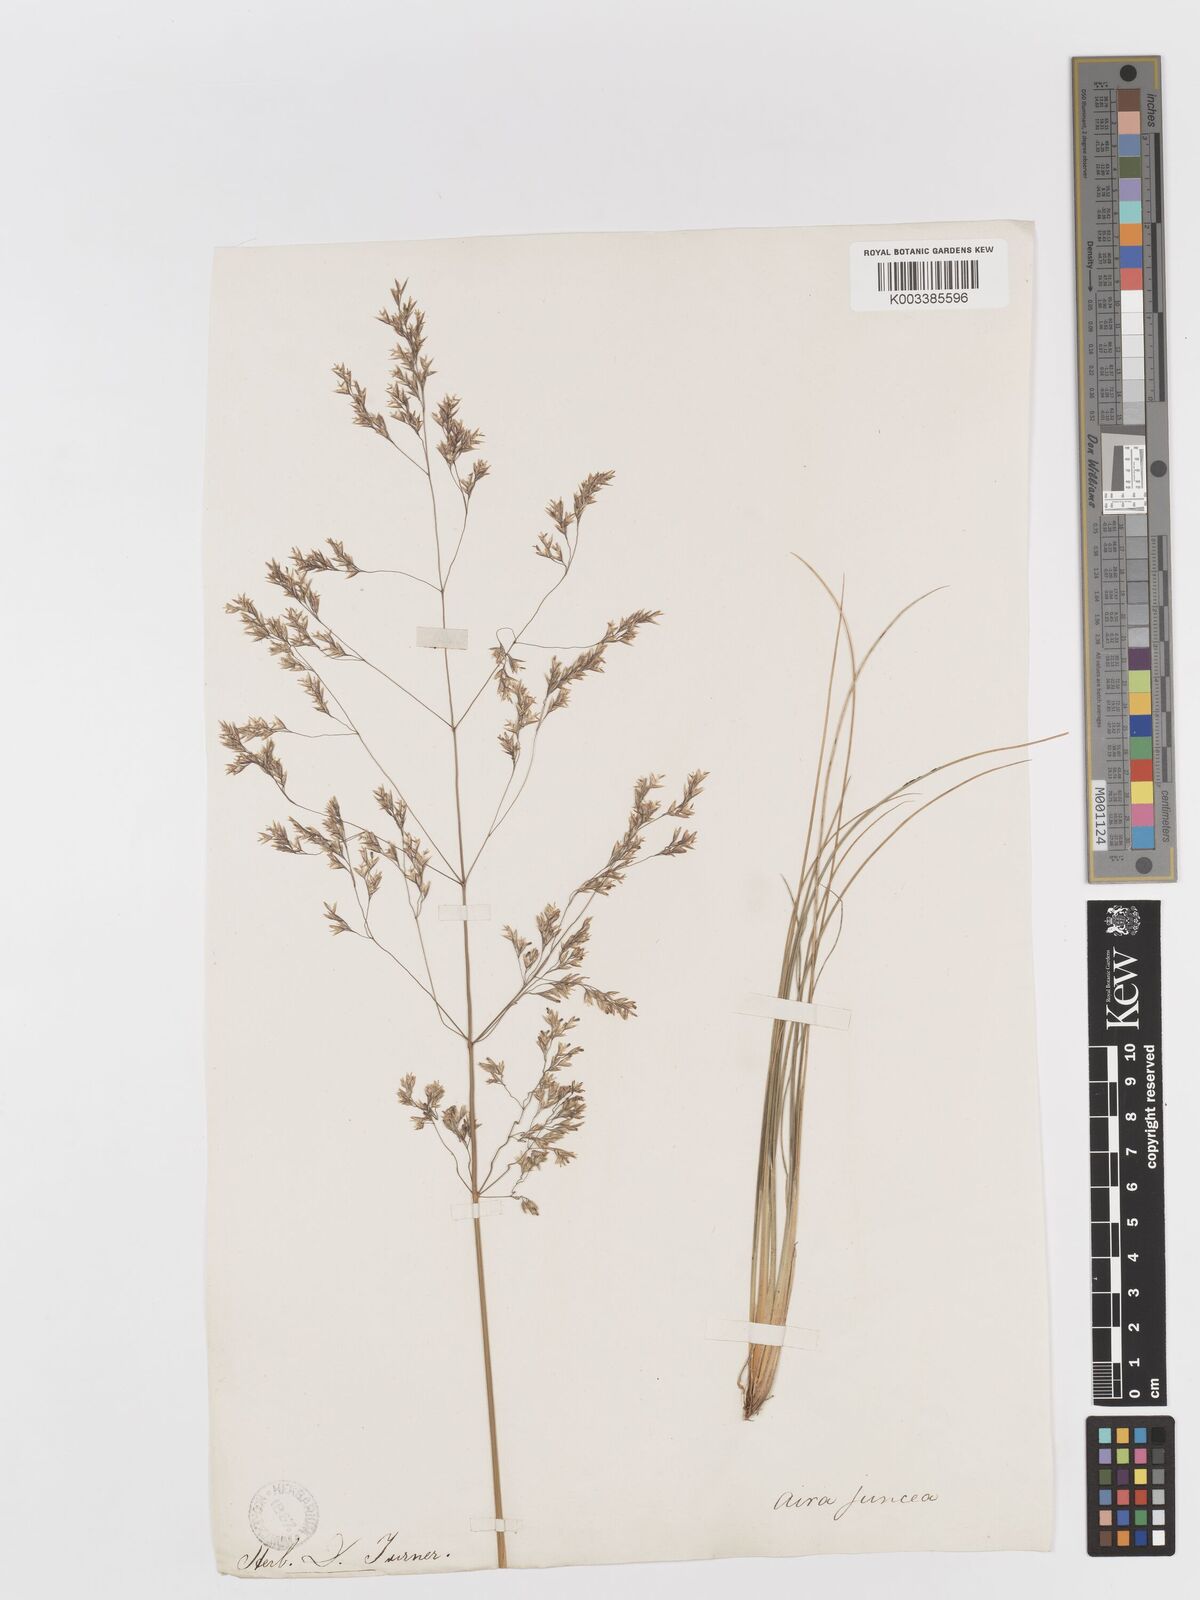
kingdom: Plantae
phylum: Tracheophyta
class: Liliopsida
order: Poales
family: Poaceae
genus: Deschampsia
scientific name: Deschampsia media
